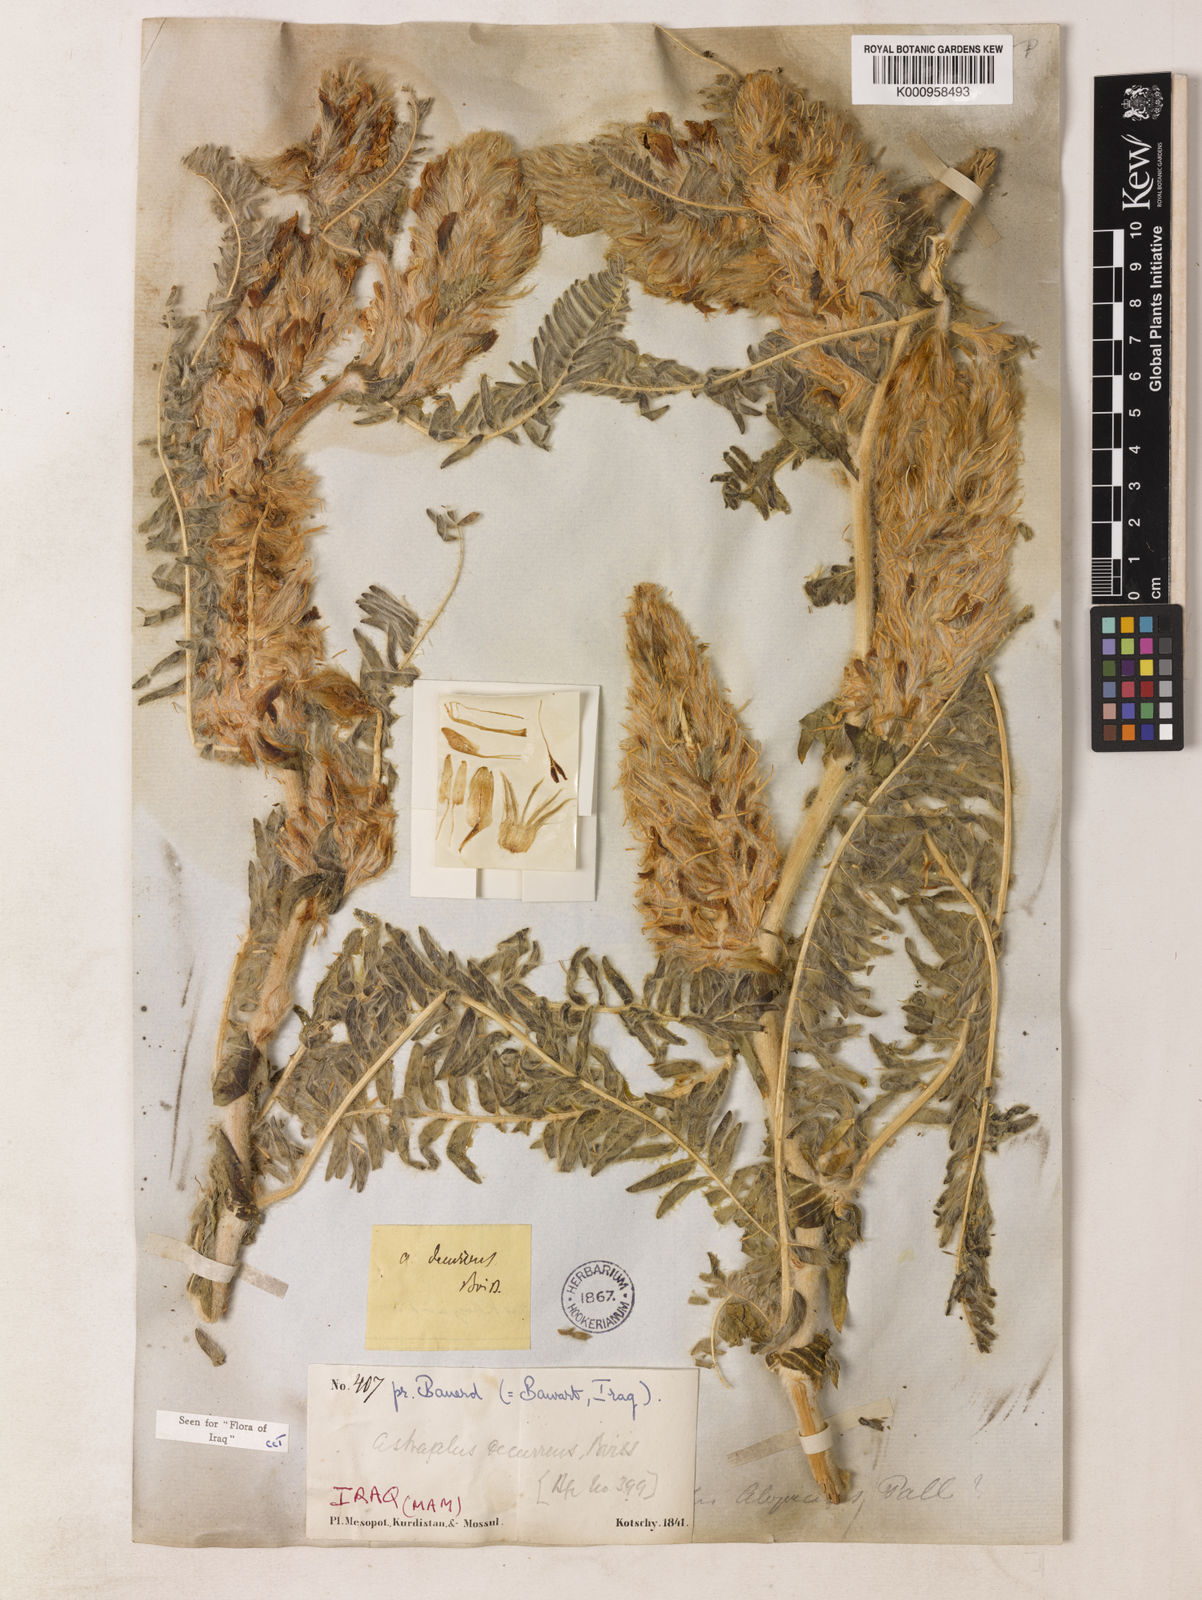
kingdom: Plantae
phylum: Tracheophyta
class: Magnoliopsida
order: Fabales
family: Fabaceae
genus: Astragalus
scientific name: Astragalus decurrens
